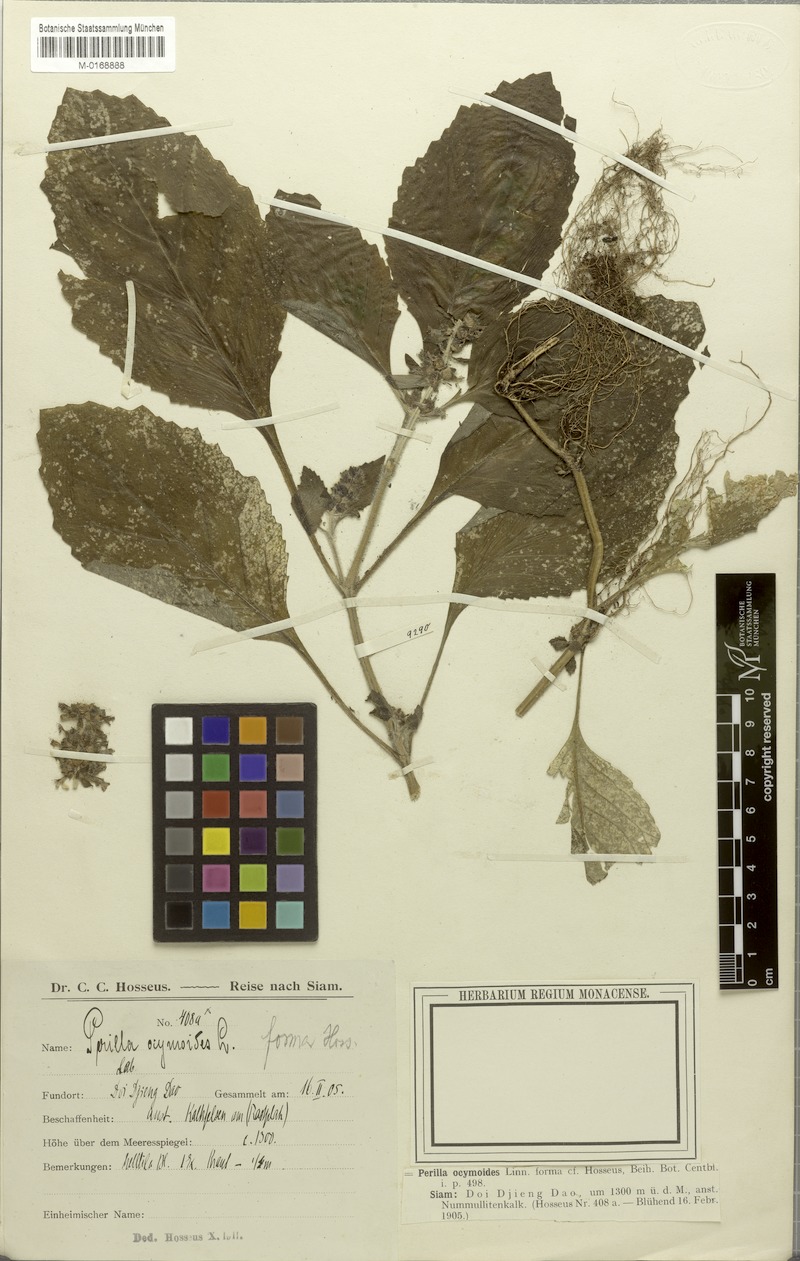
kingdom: Plantae
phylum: Tracheophyta
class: Magnoliopsida
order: Lamiales
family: Lamiaceae
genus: Ajuga
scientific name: Ajuga macrosperma
